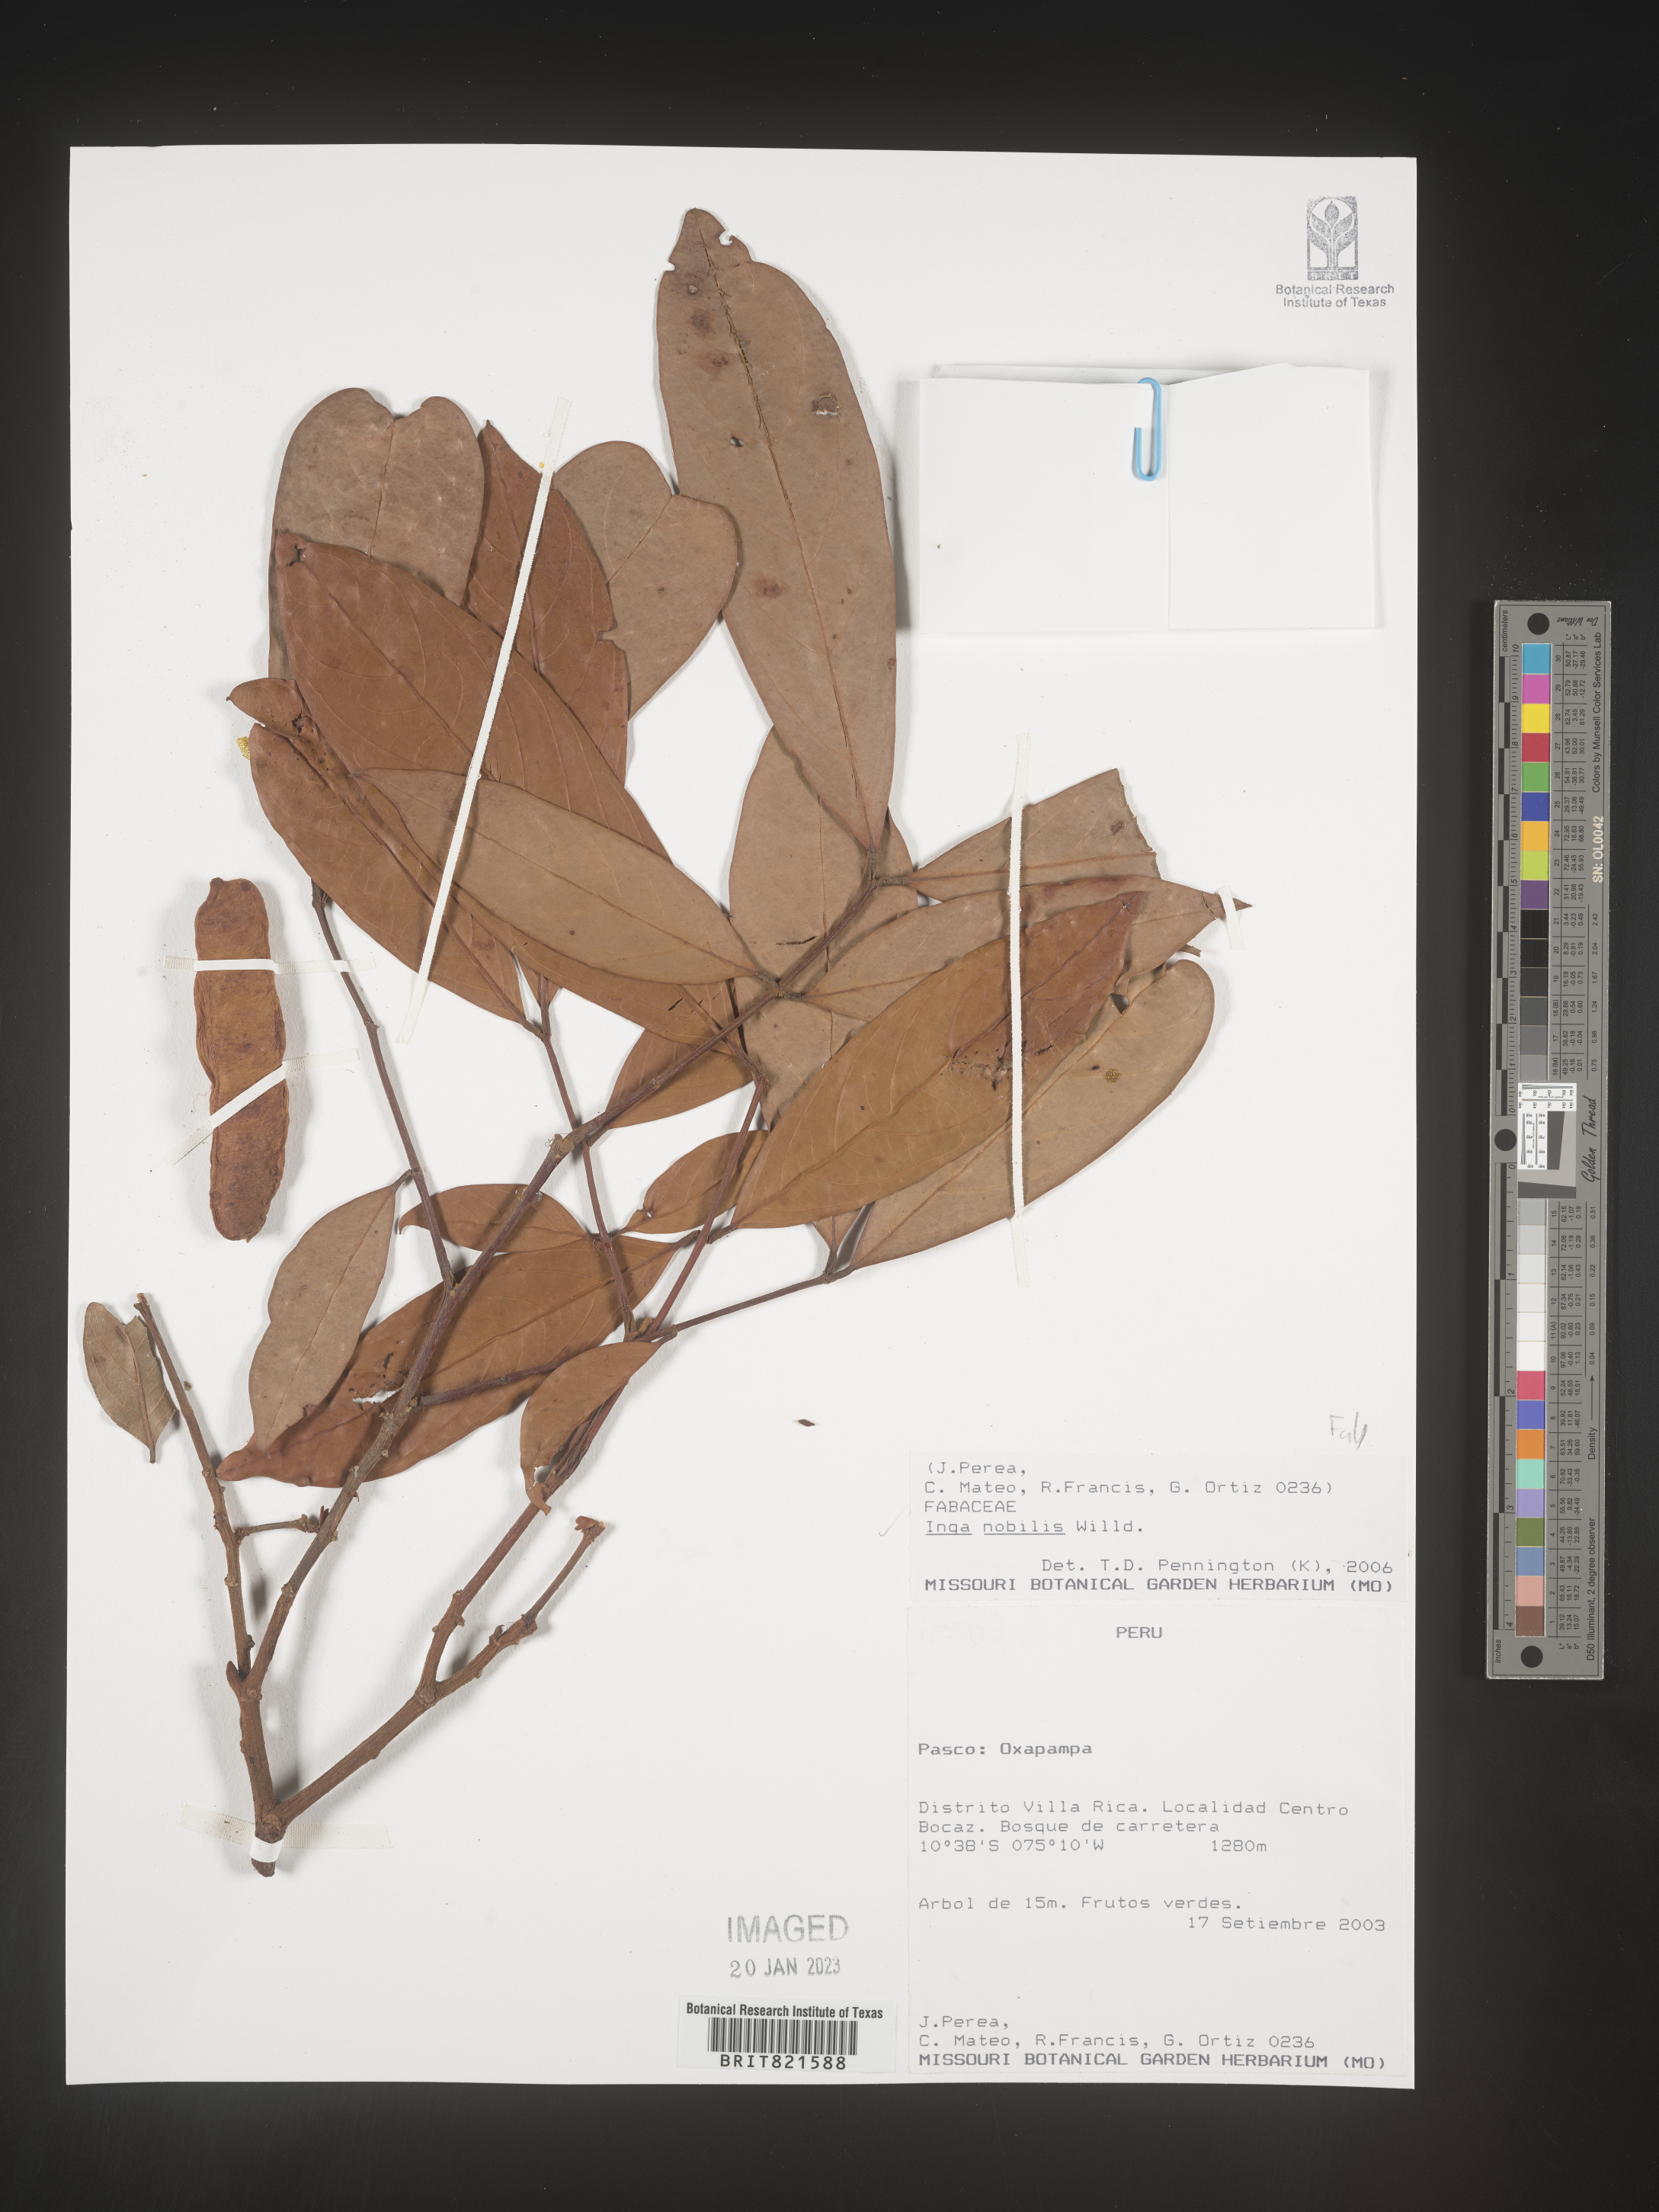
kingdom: Plantae
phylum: Tracheophyta
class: Magnoliopsida
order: Fabales
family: Fabaceae
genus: Inga
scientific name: Inga
